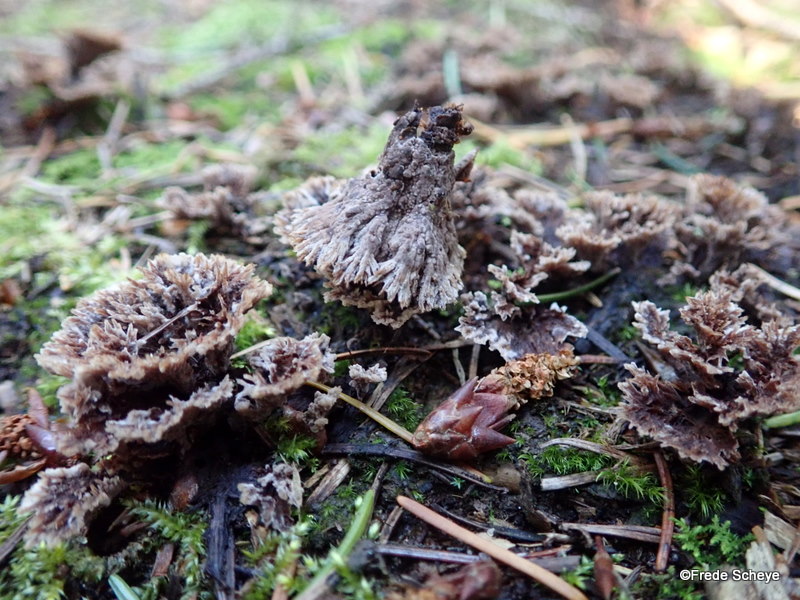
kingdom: Fungi
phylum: Basidiomycota
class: Agaricomycetes
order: Thelephorales
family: Thelephoraceae
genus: Thelephora
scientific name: Thelephora terrestris
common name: fliget frynsesvamp
